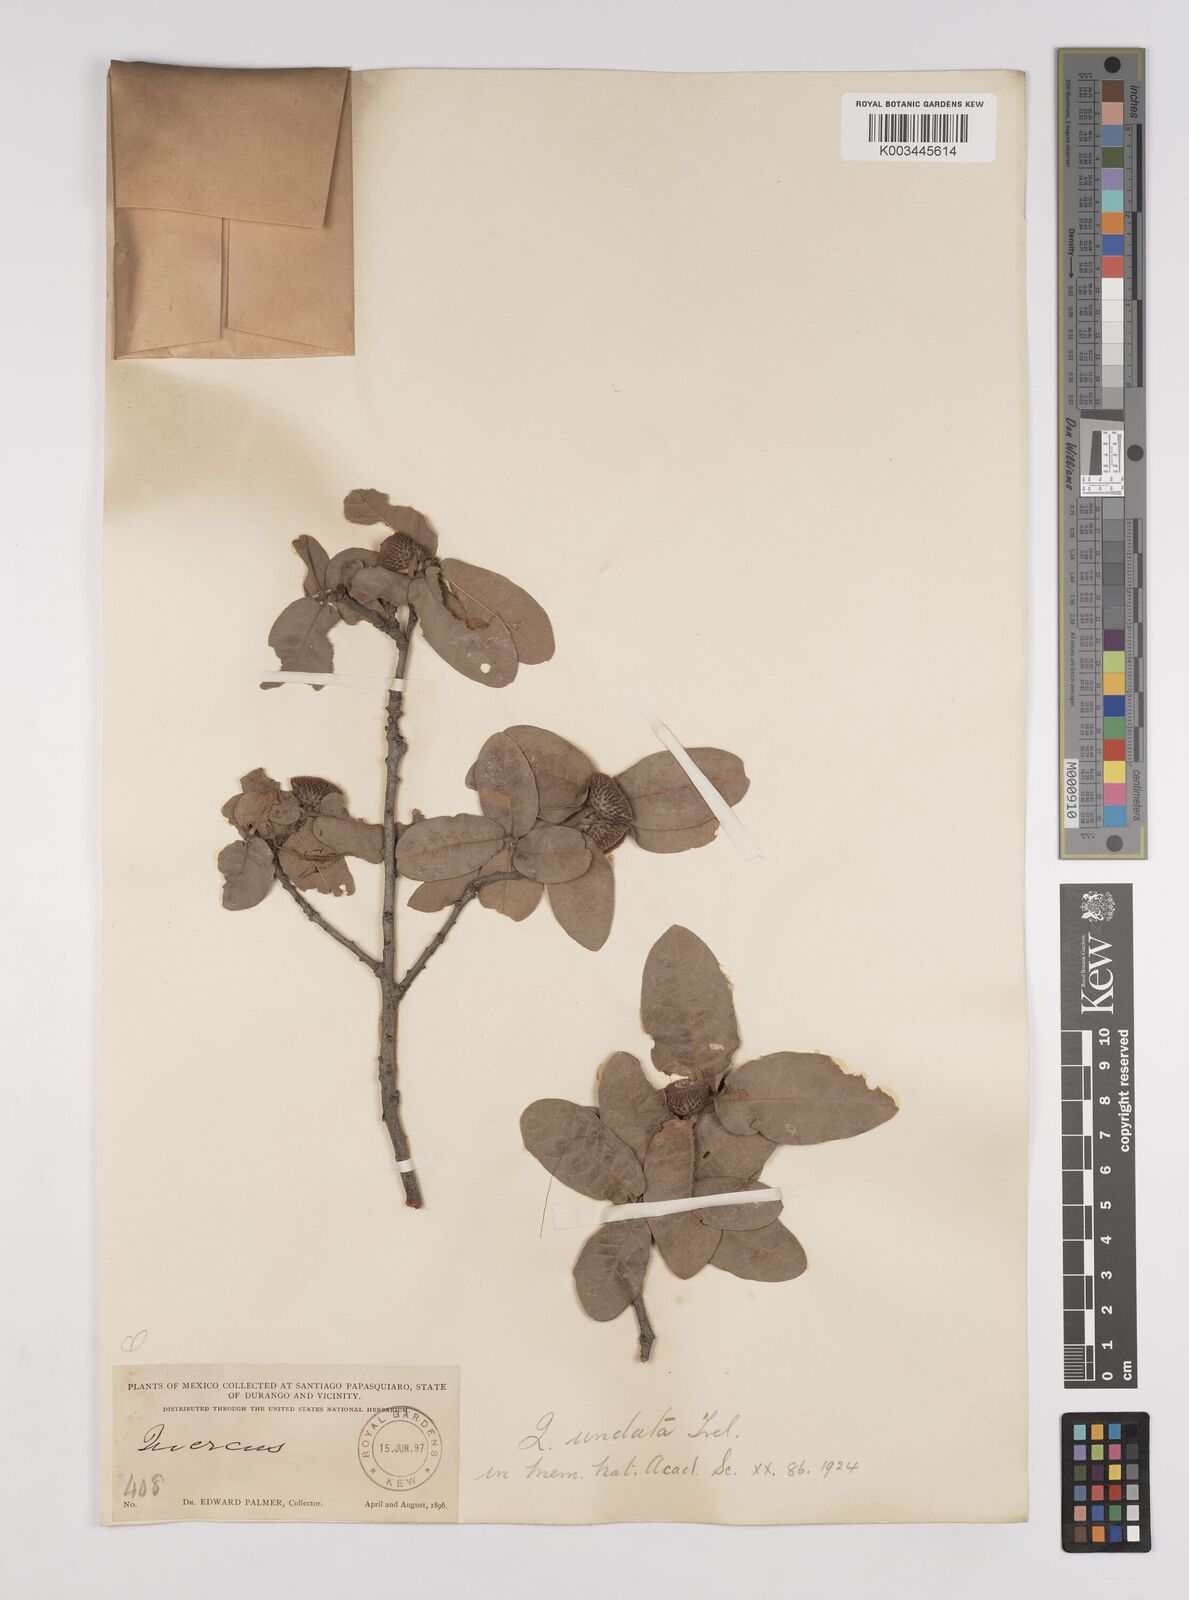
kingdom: Plantae
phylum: Tracheophyta
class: Magnoliopsida
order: Fagales
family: Fagaceae
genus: Quercus
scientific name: Quercus undata
